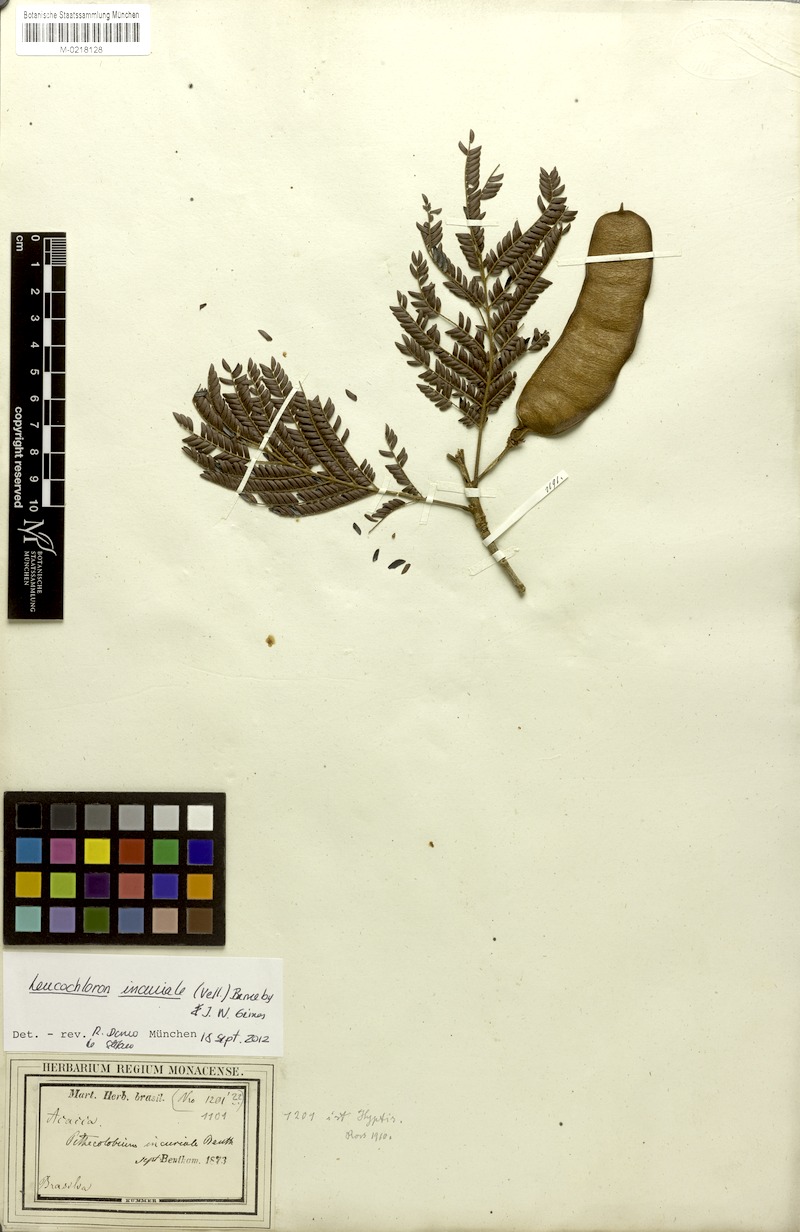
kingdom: Plantae
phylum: Tracheophyta
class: Magnoliopsida
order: Fabales
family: Fabaceae
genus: Leucochloron
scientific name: Leucochloron incuriale
